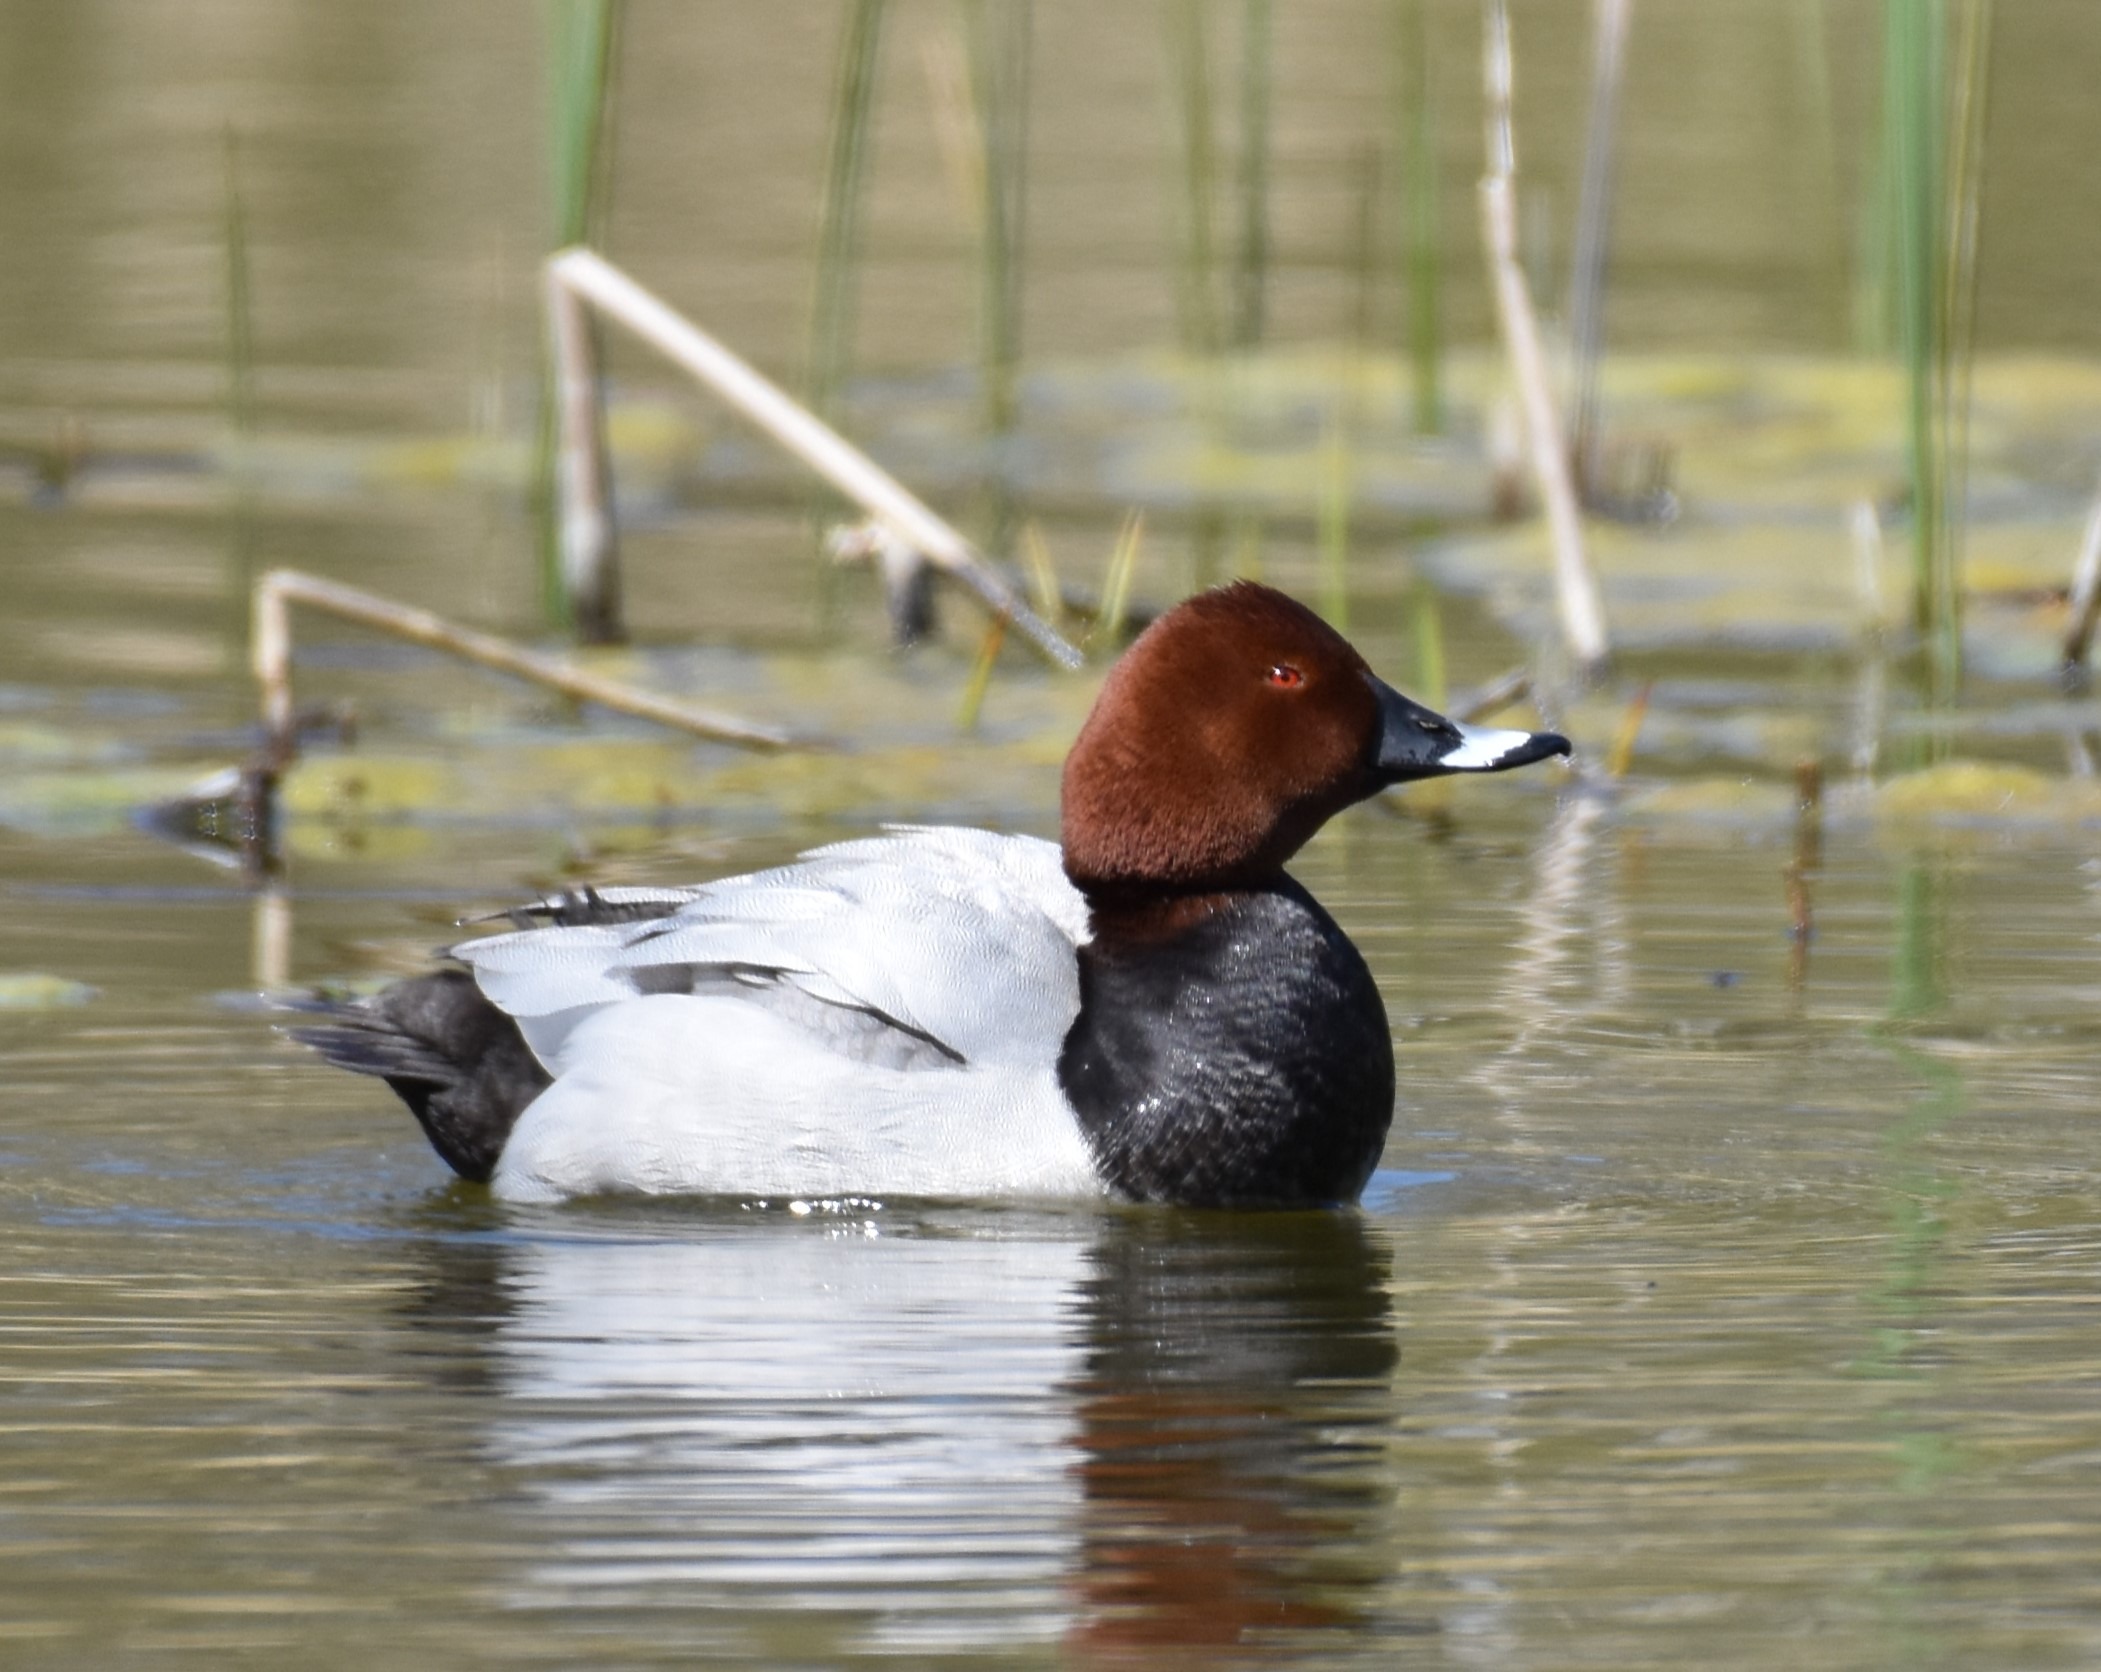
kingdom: Animalia
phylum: Chordata
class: Aves
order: Anseriformes
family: Anatidae
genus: Aythya
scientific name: Aythya ferina
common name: Taffeland
